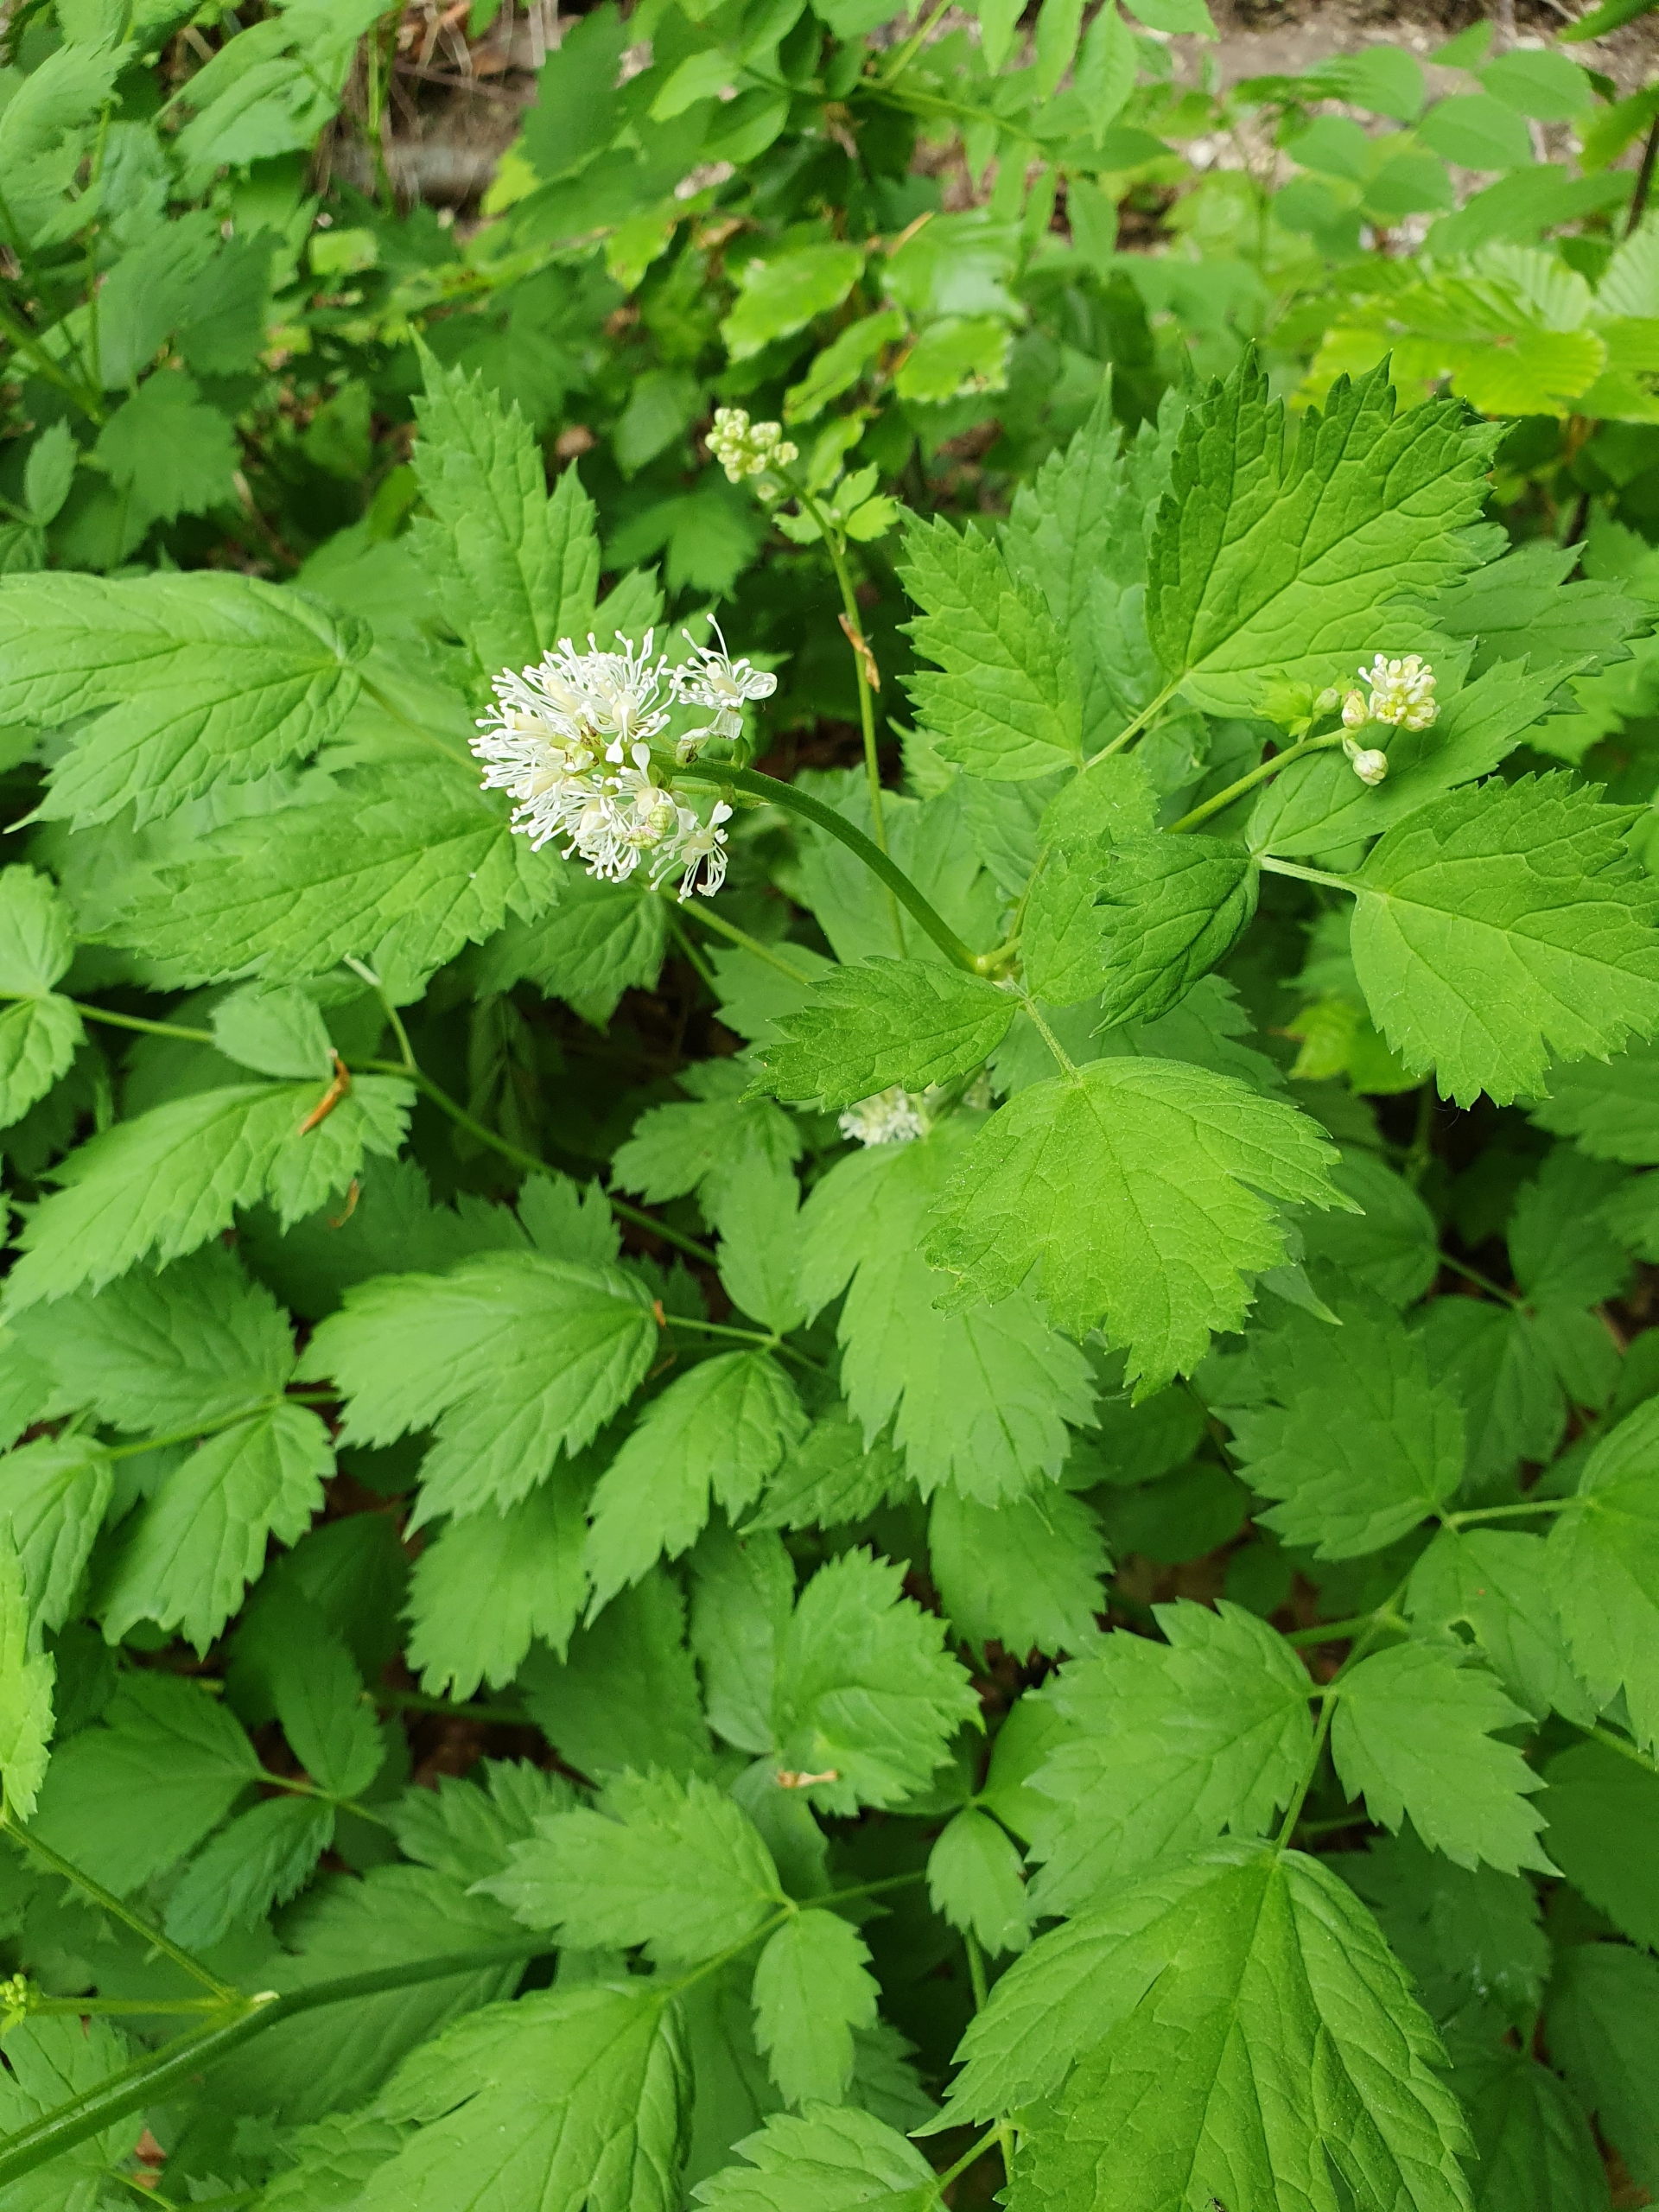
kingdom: Plantae
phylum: Tracheophyta
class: Magnoliopsida
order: Ranunculales
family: Ranunculaceae
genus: Actaea
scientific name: Actaea spicata
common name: Druemunke
